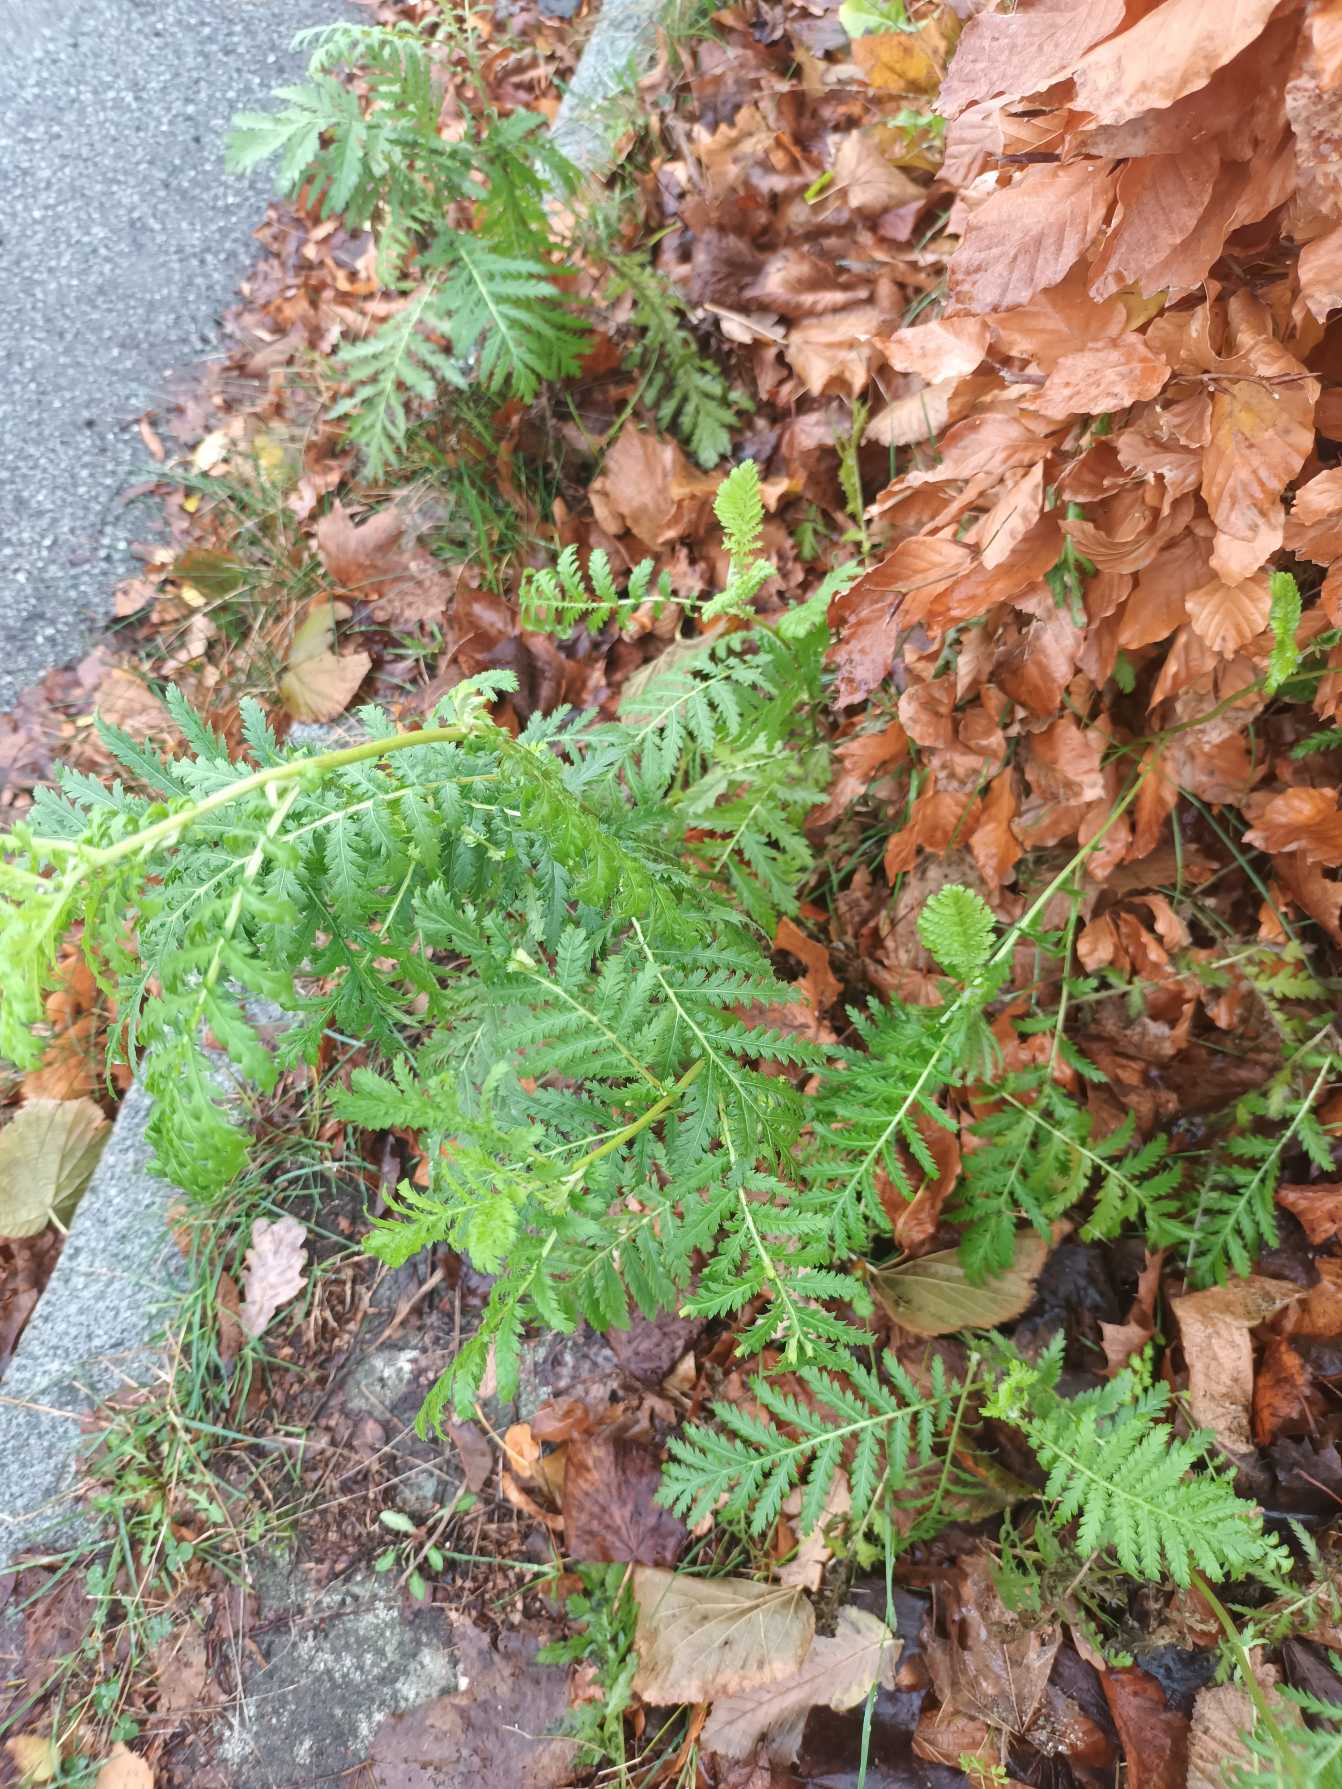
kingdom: Plantae
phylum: Tracheophyta
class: Magnoliopsida
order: Asterales
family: Asteraceae
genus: Tanacetum
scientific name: Tanacetum vulgare
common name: Rejnfan
